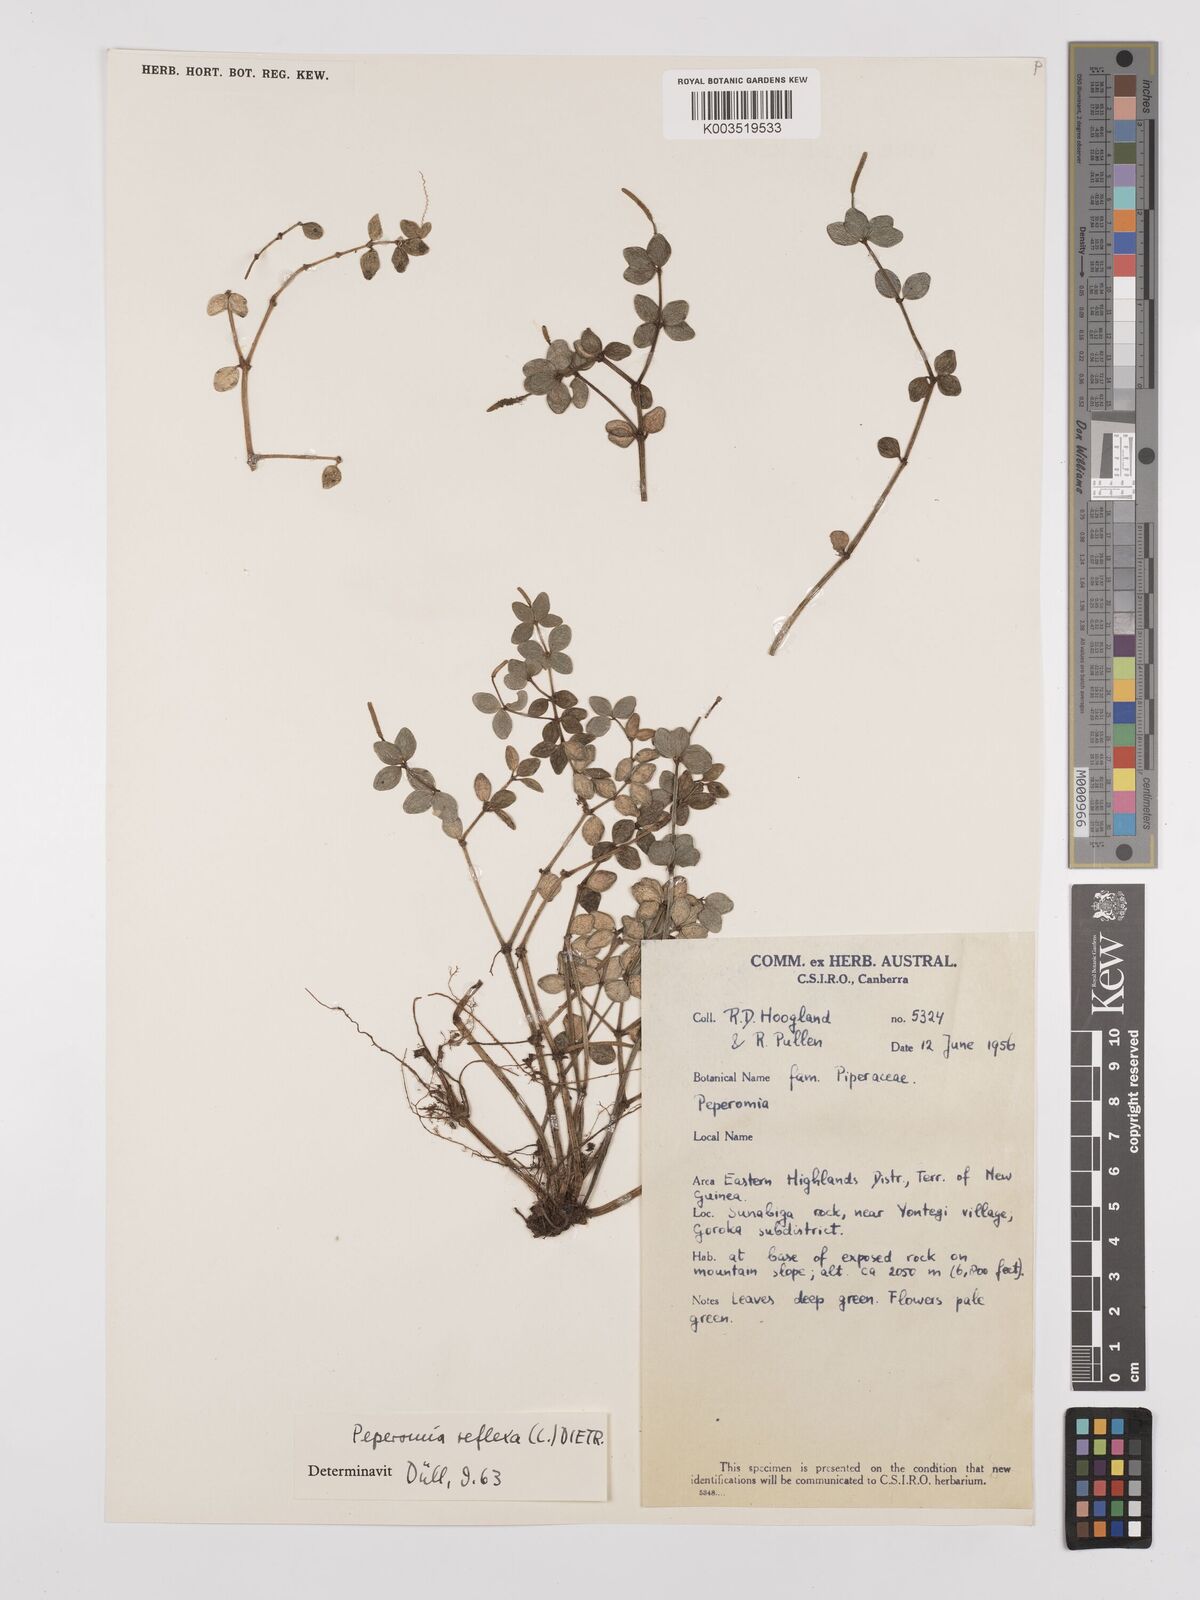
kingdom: Plantae
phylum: Tracheophyta
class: Magnoliopsida
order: Piperales
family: Piperaceae
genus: Peperomia
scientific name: Peperomia tetraphylla
